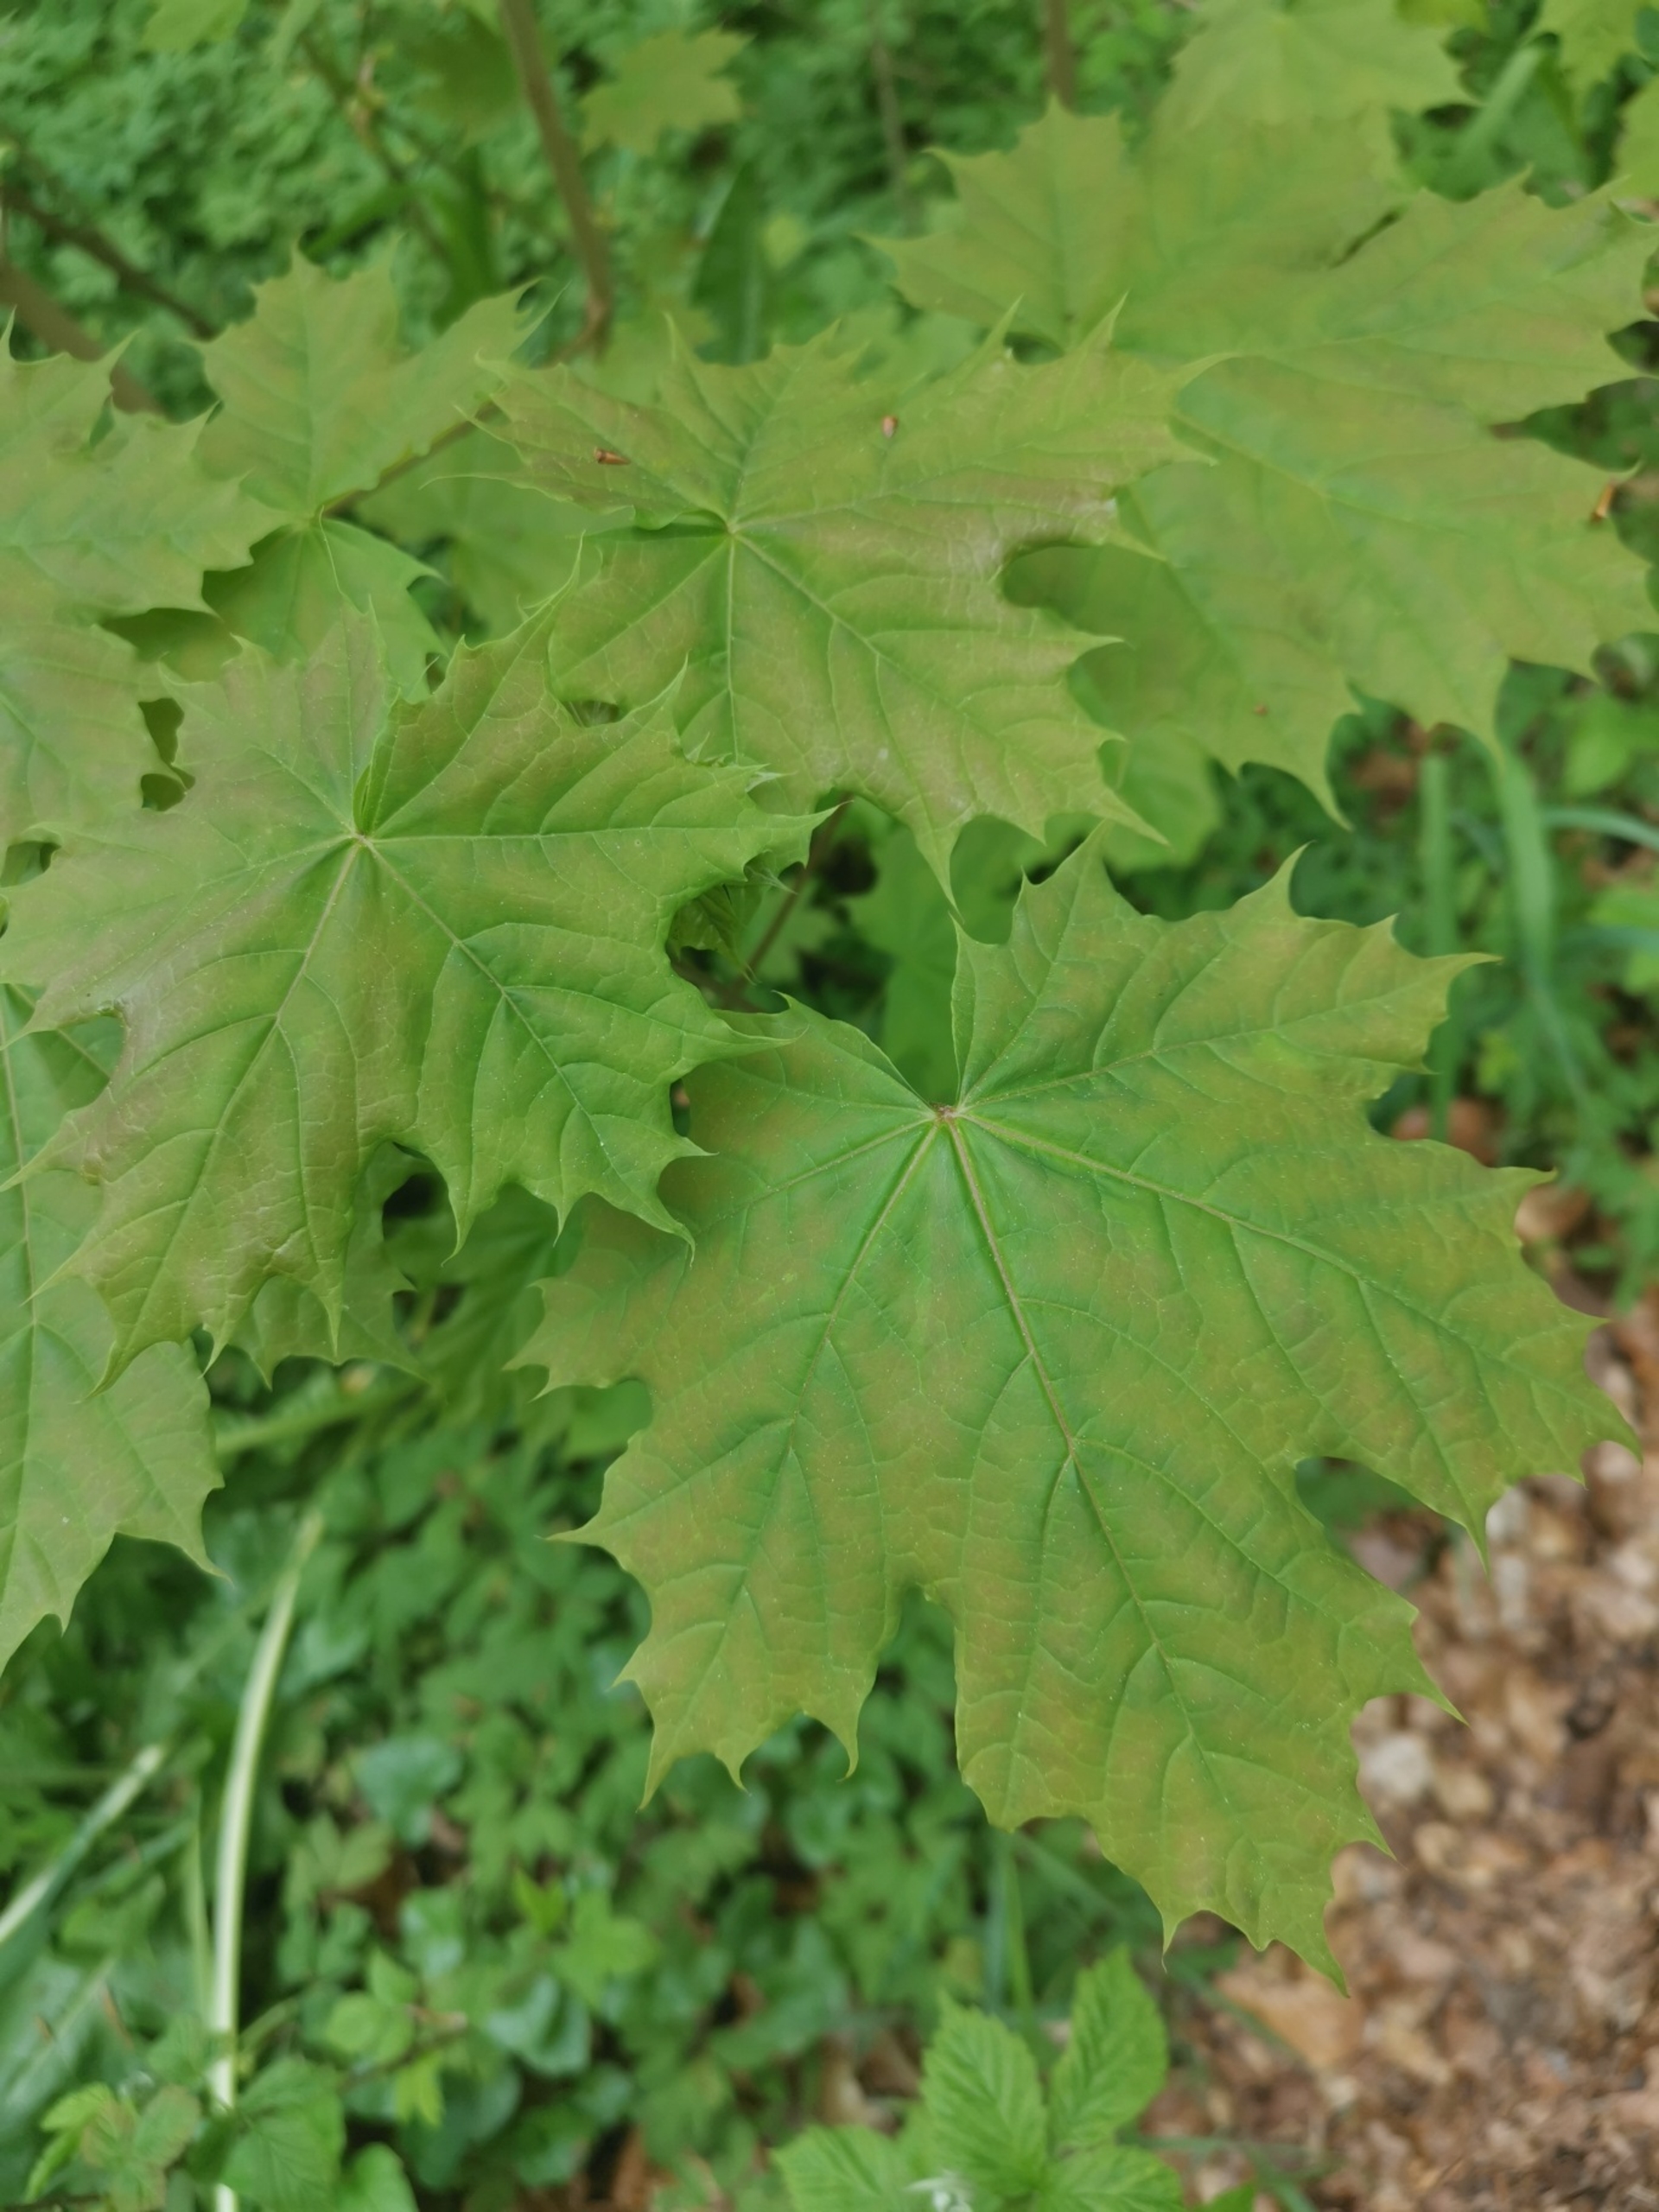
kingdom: Plantae
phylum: Tracheophyta
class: Magnoliopsida
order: Sapindales
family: Sapindaceae
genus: Acer
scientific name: Acer platanoides
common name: Spids-løn
